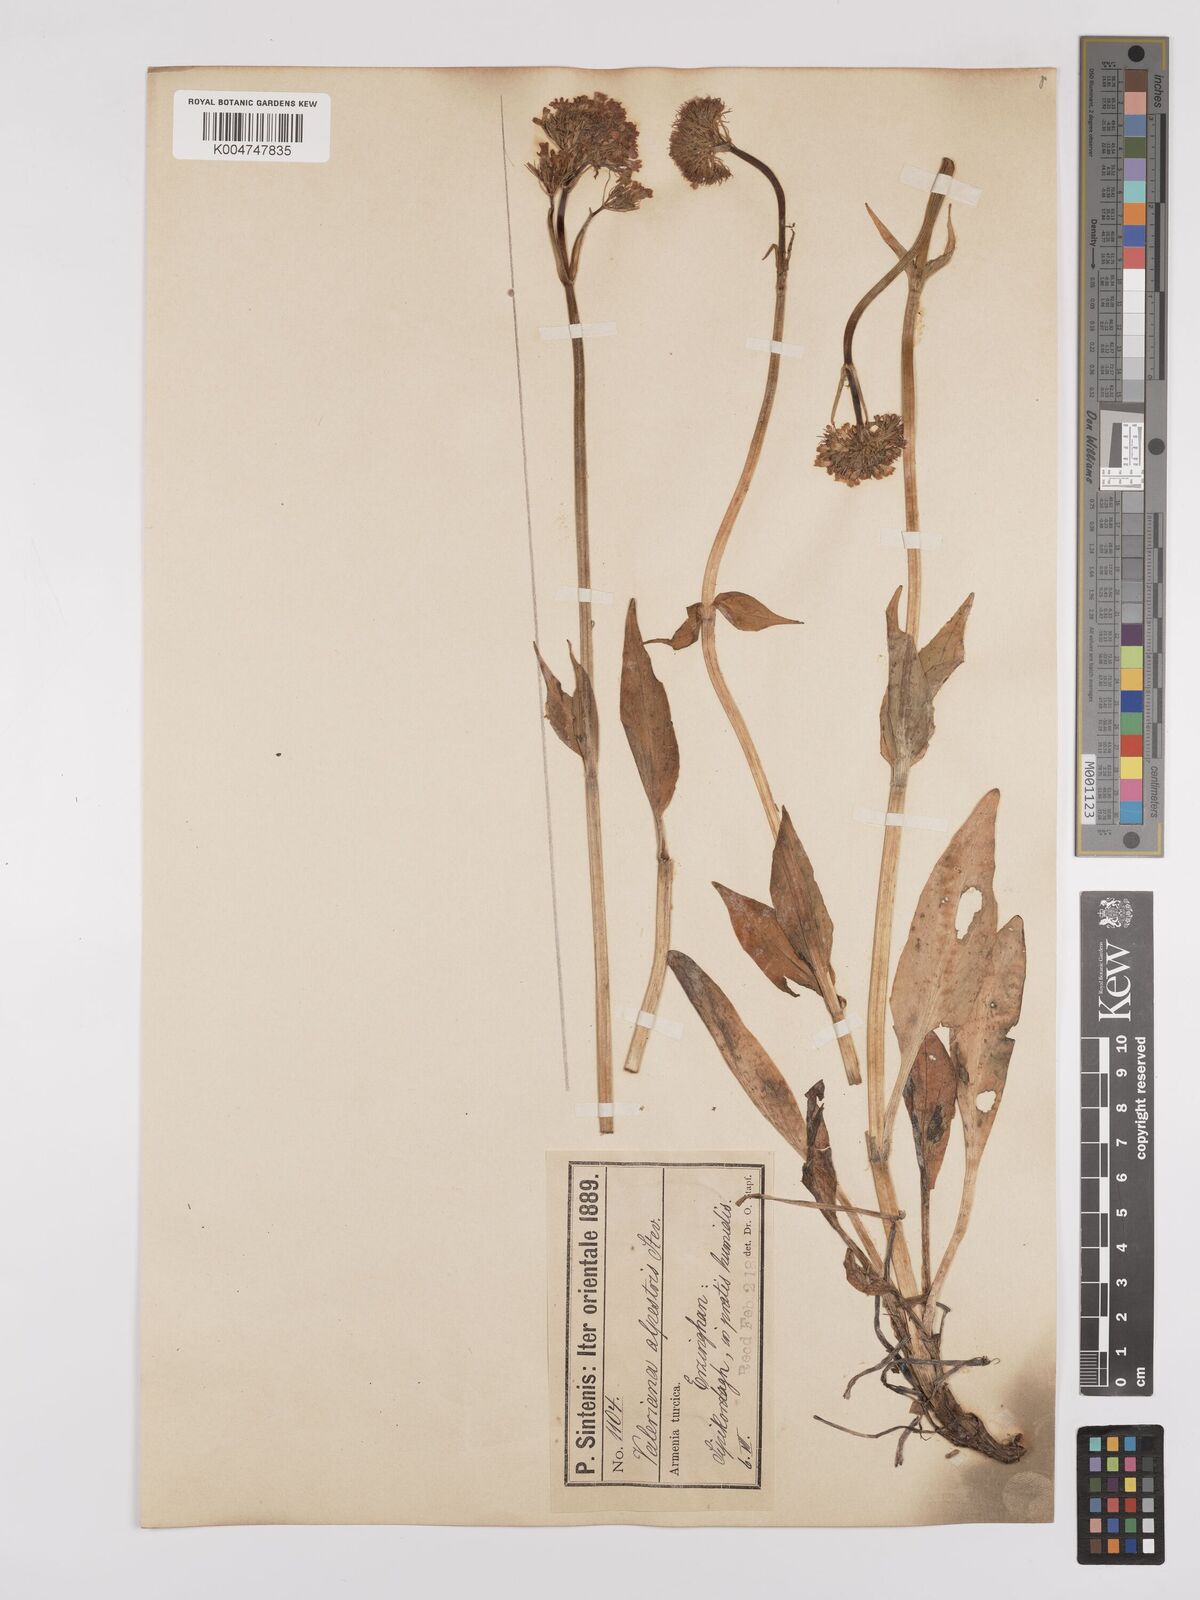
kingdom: Plantae
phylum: Tracheophyta
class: Magnoliopsida
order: Dipsacales
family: Caprifoliaceae
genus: Valeriana
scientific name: Valeriana alpestris
